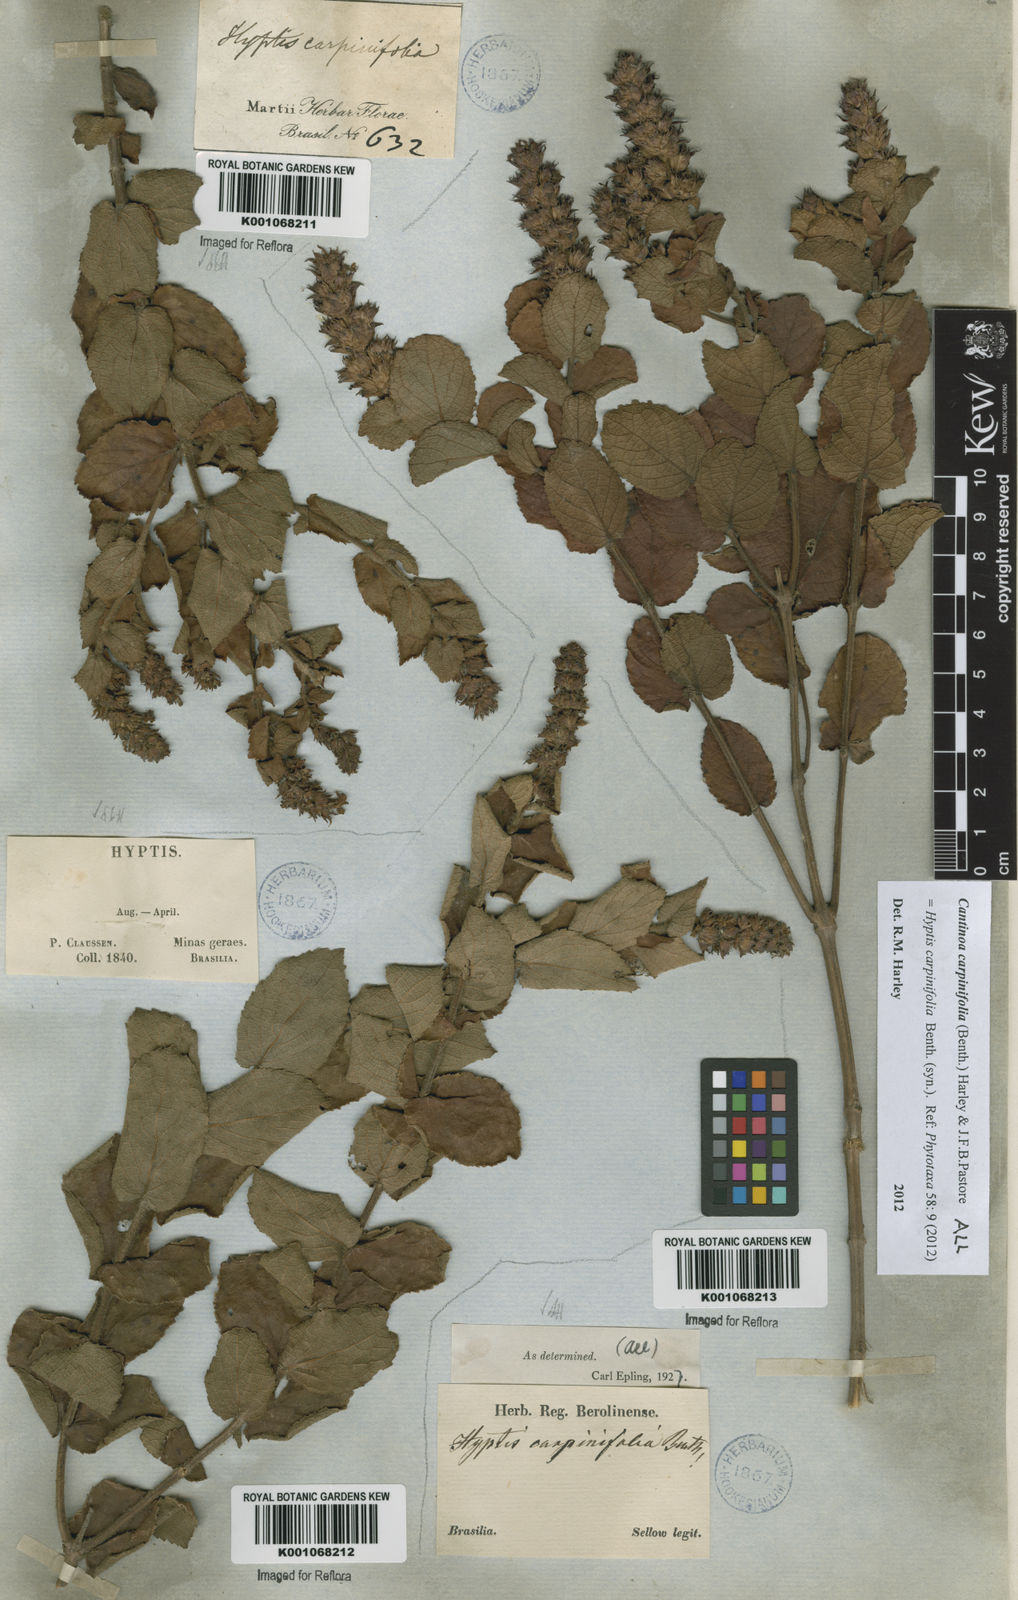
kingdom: Plantae
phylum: Tracheophyta
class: Magnoliopsida
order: Lamiales
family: Lamiaceae
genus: Cantinoa
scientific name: Cantinoa carpinifolia
